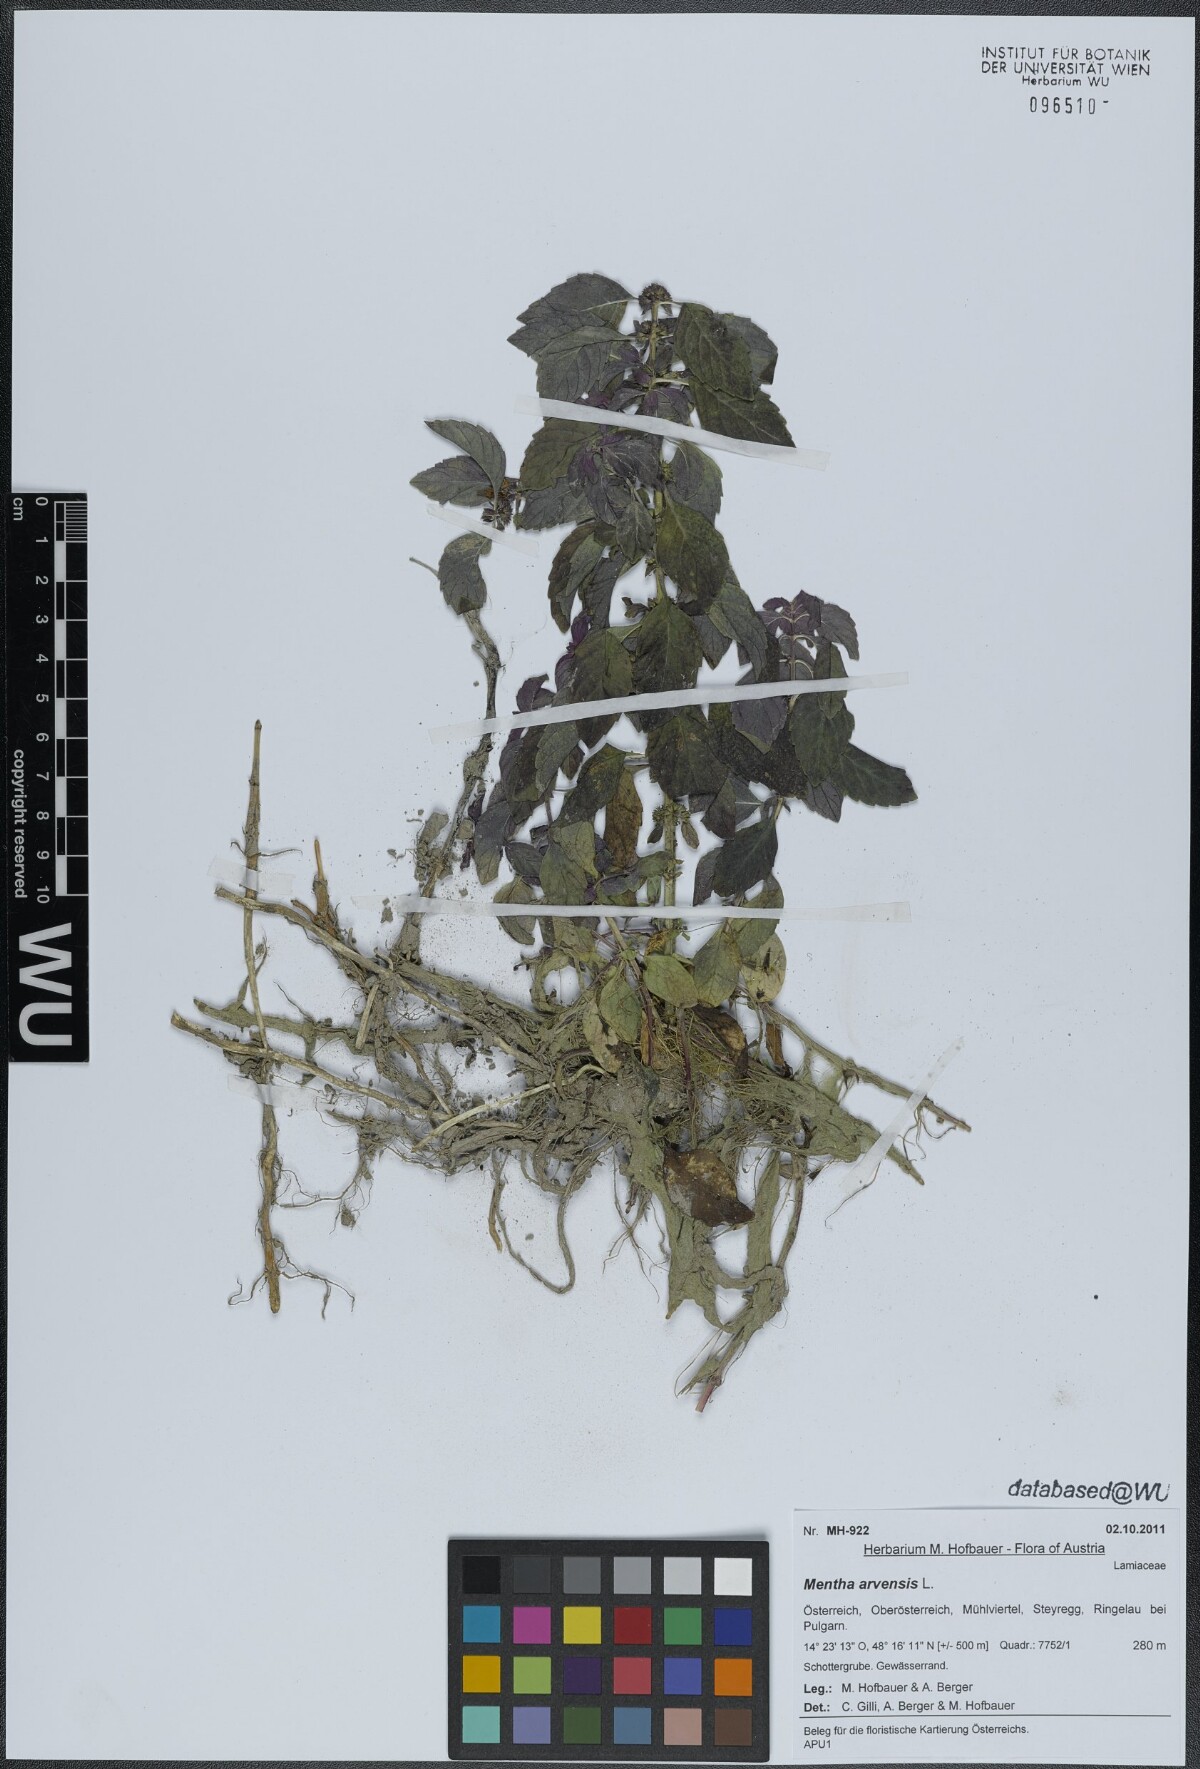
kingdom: Plantae
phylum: Tracheophyta
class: Magnoliopsida
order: Lamiales
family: Lamiaceae
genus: Mentha
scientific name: Mentha arvensis
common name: Corn mint
